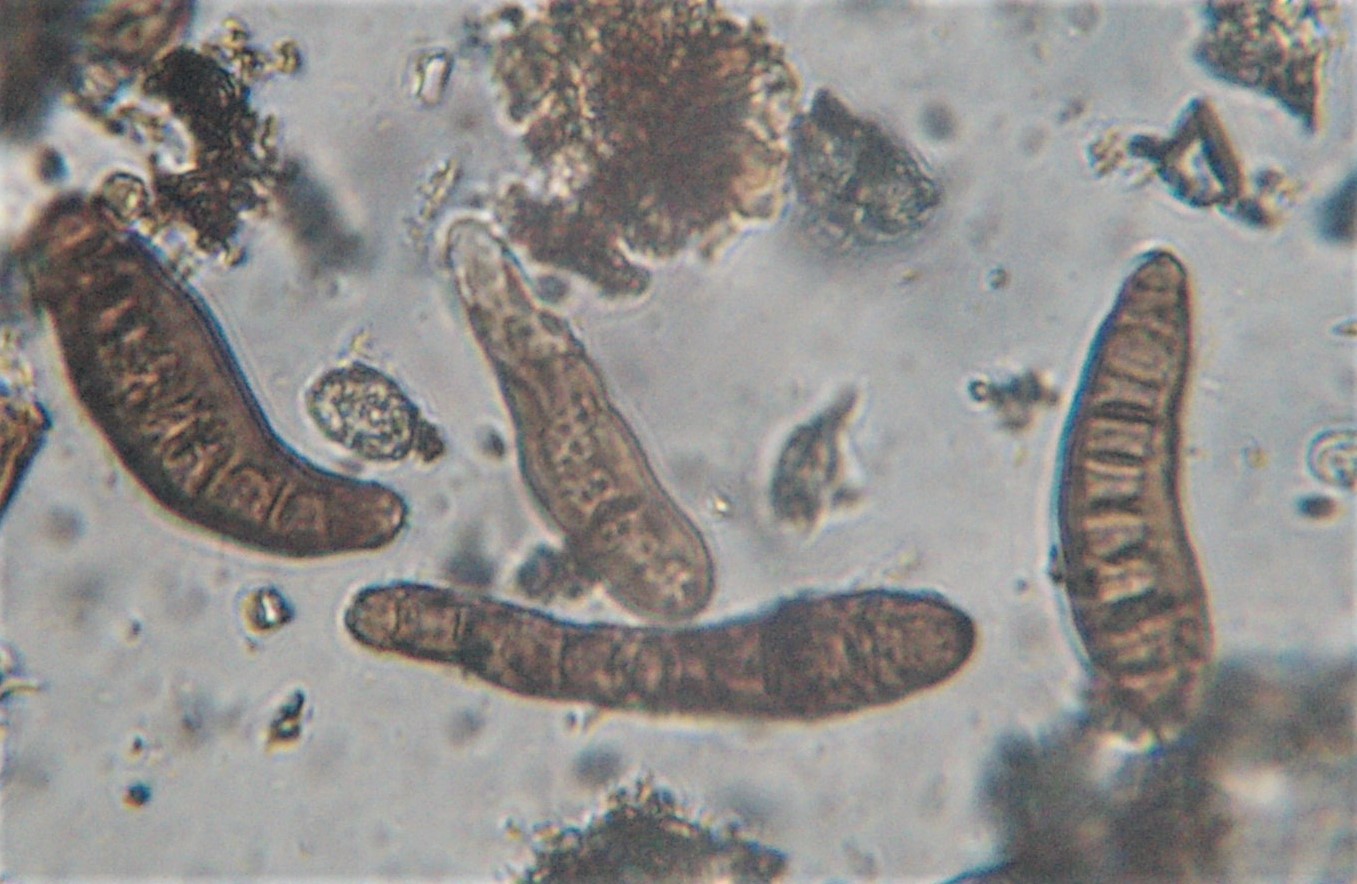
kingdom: Fungi
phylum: Ascomycota
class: Dothideomycetes
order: Pleosporales
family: Massarinaceae
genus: Helminthosporium
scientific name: Helminthosporium oligosporum
